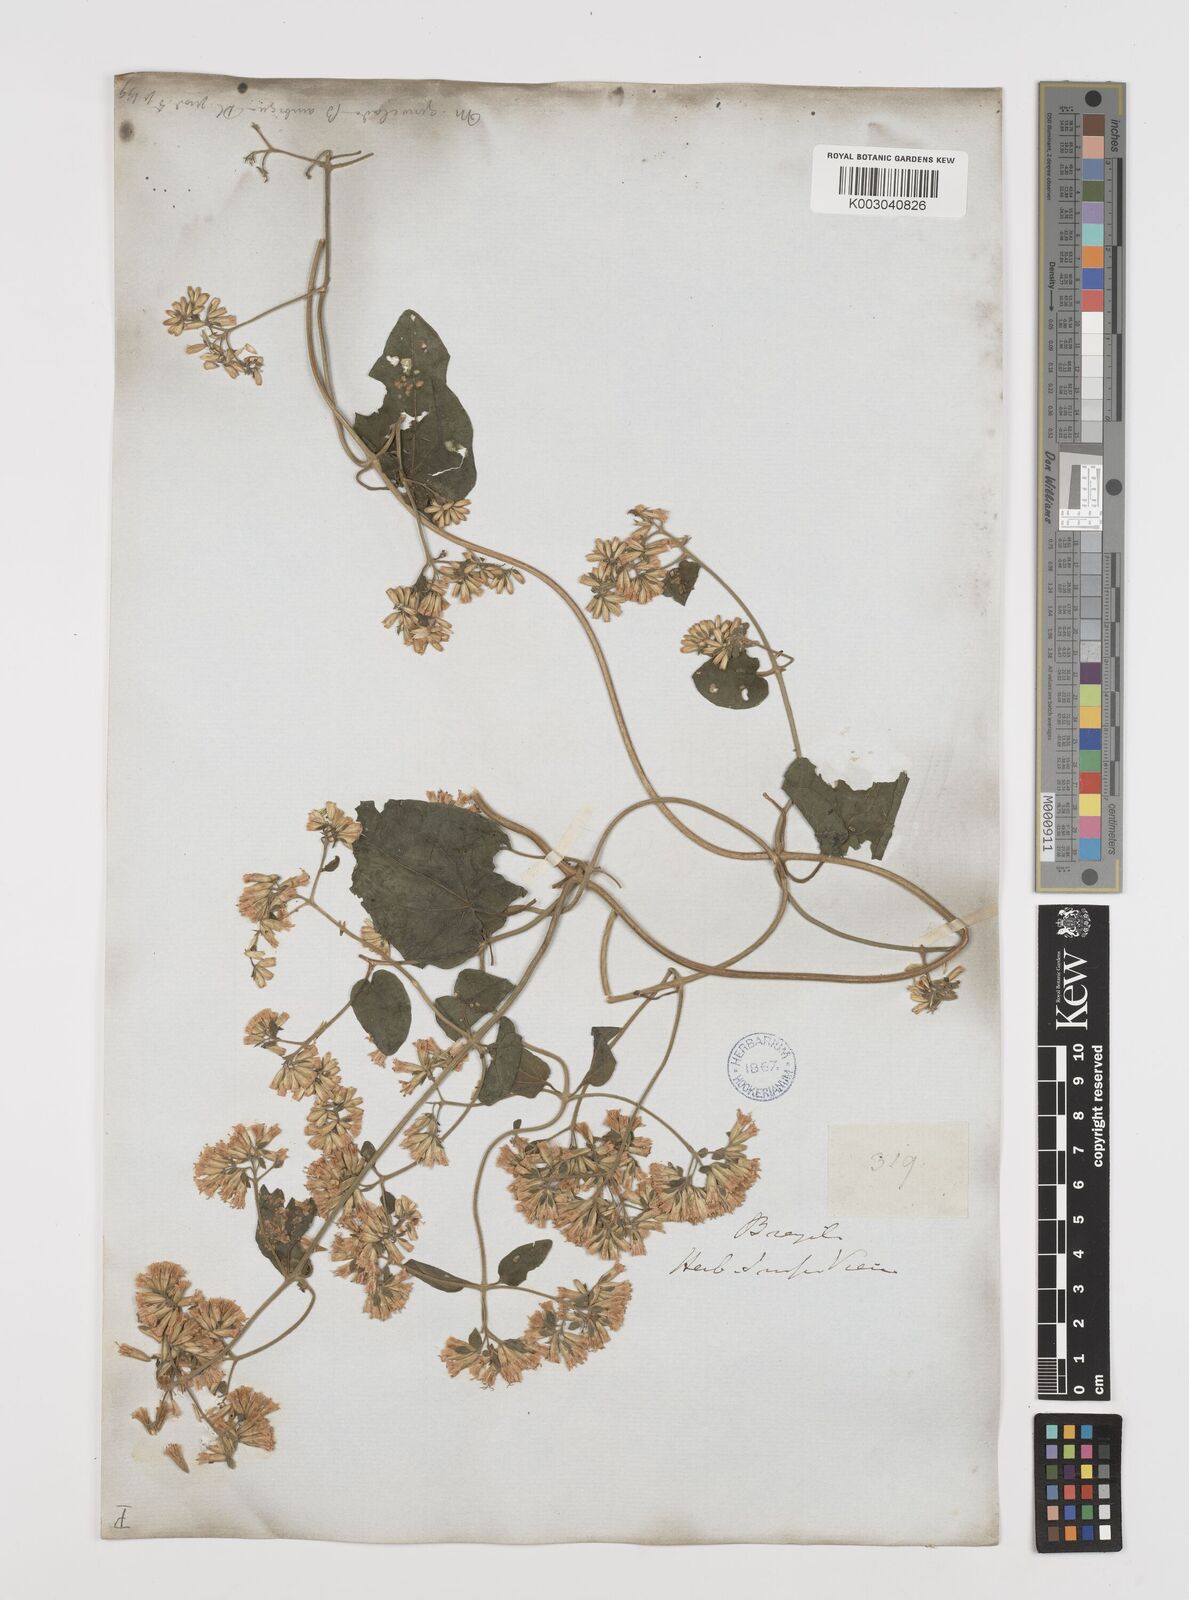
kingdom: Plantae
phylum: Tracheophyta
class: Magnoliopsida
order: Asterales
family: Asteraceae
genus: Mikania
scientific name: Mikania cordifolia
